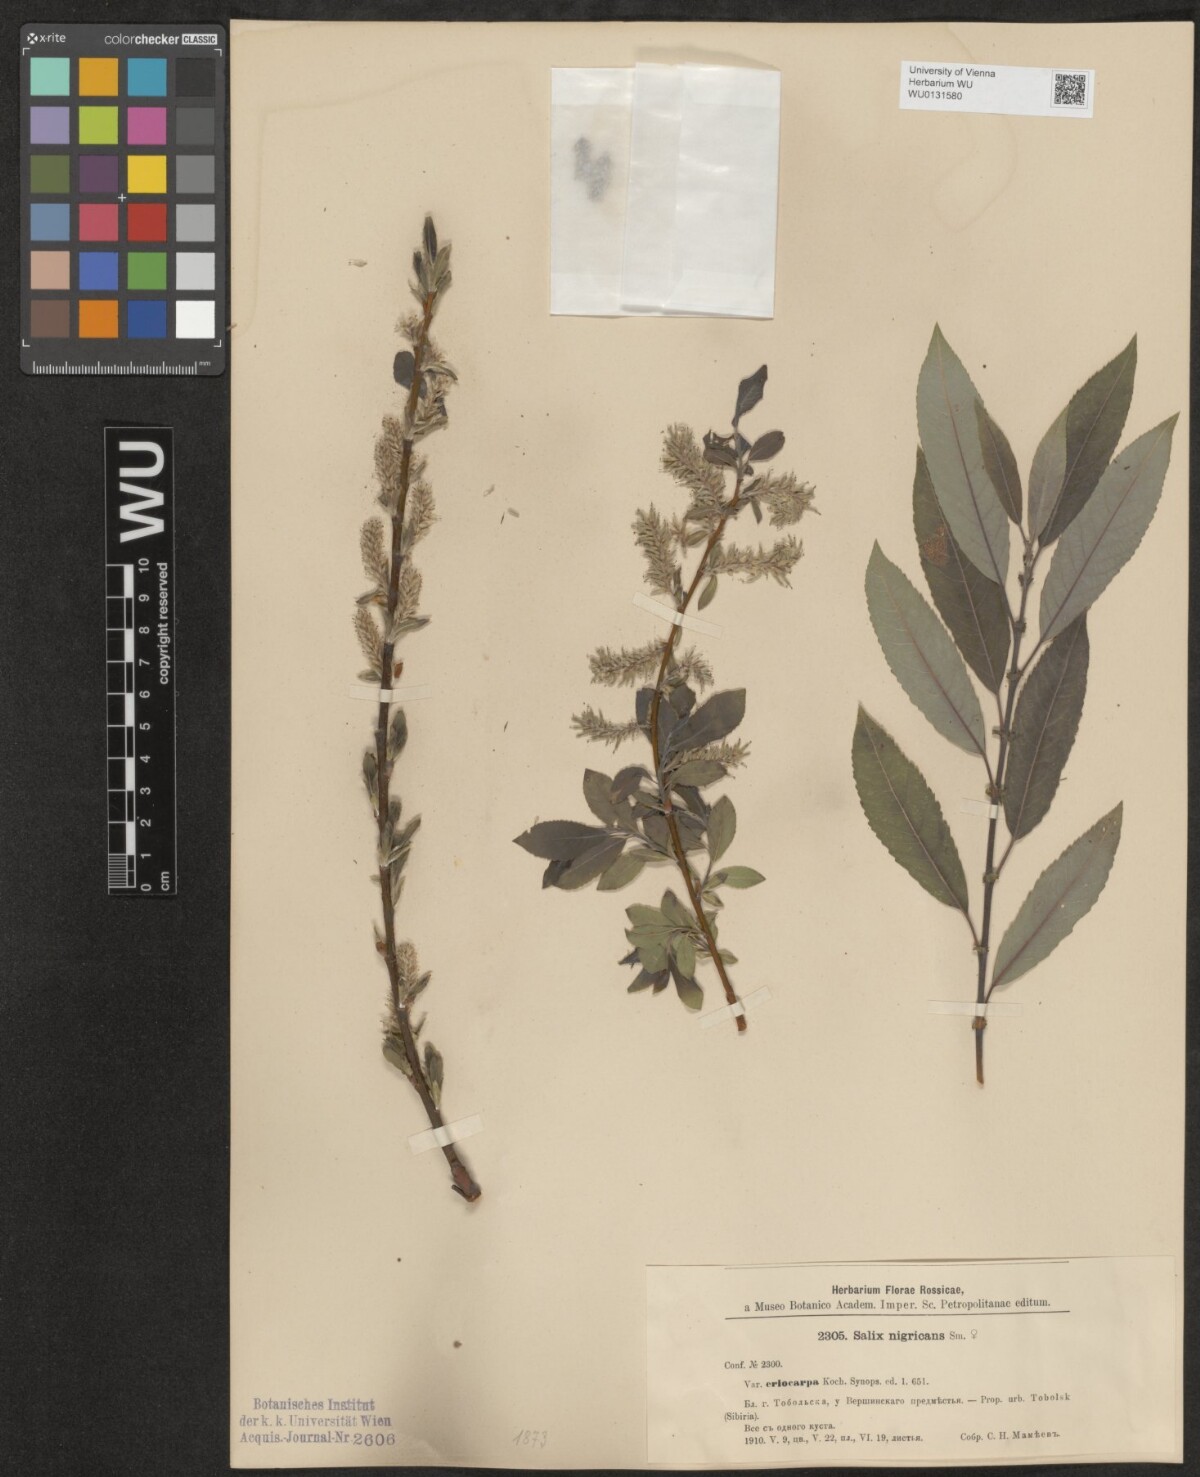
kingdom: Plantae
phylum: Tracheophyta
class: Magnoliopsida
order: Malpighiales
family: Salicaceae
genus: Salix
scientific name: Salix myrsinifolia
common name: Dark-leaved willow
